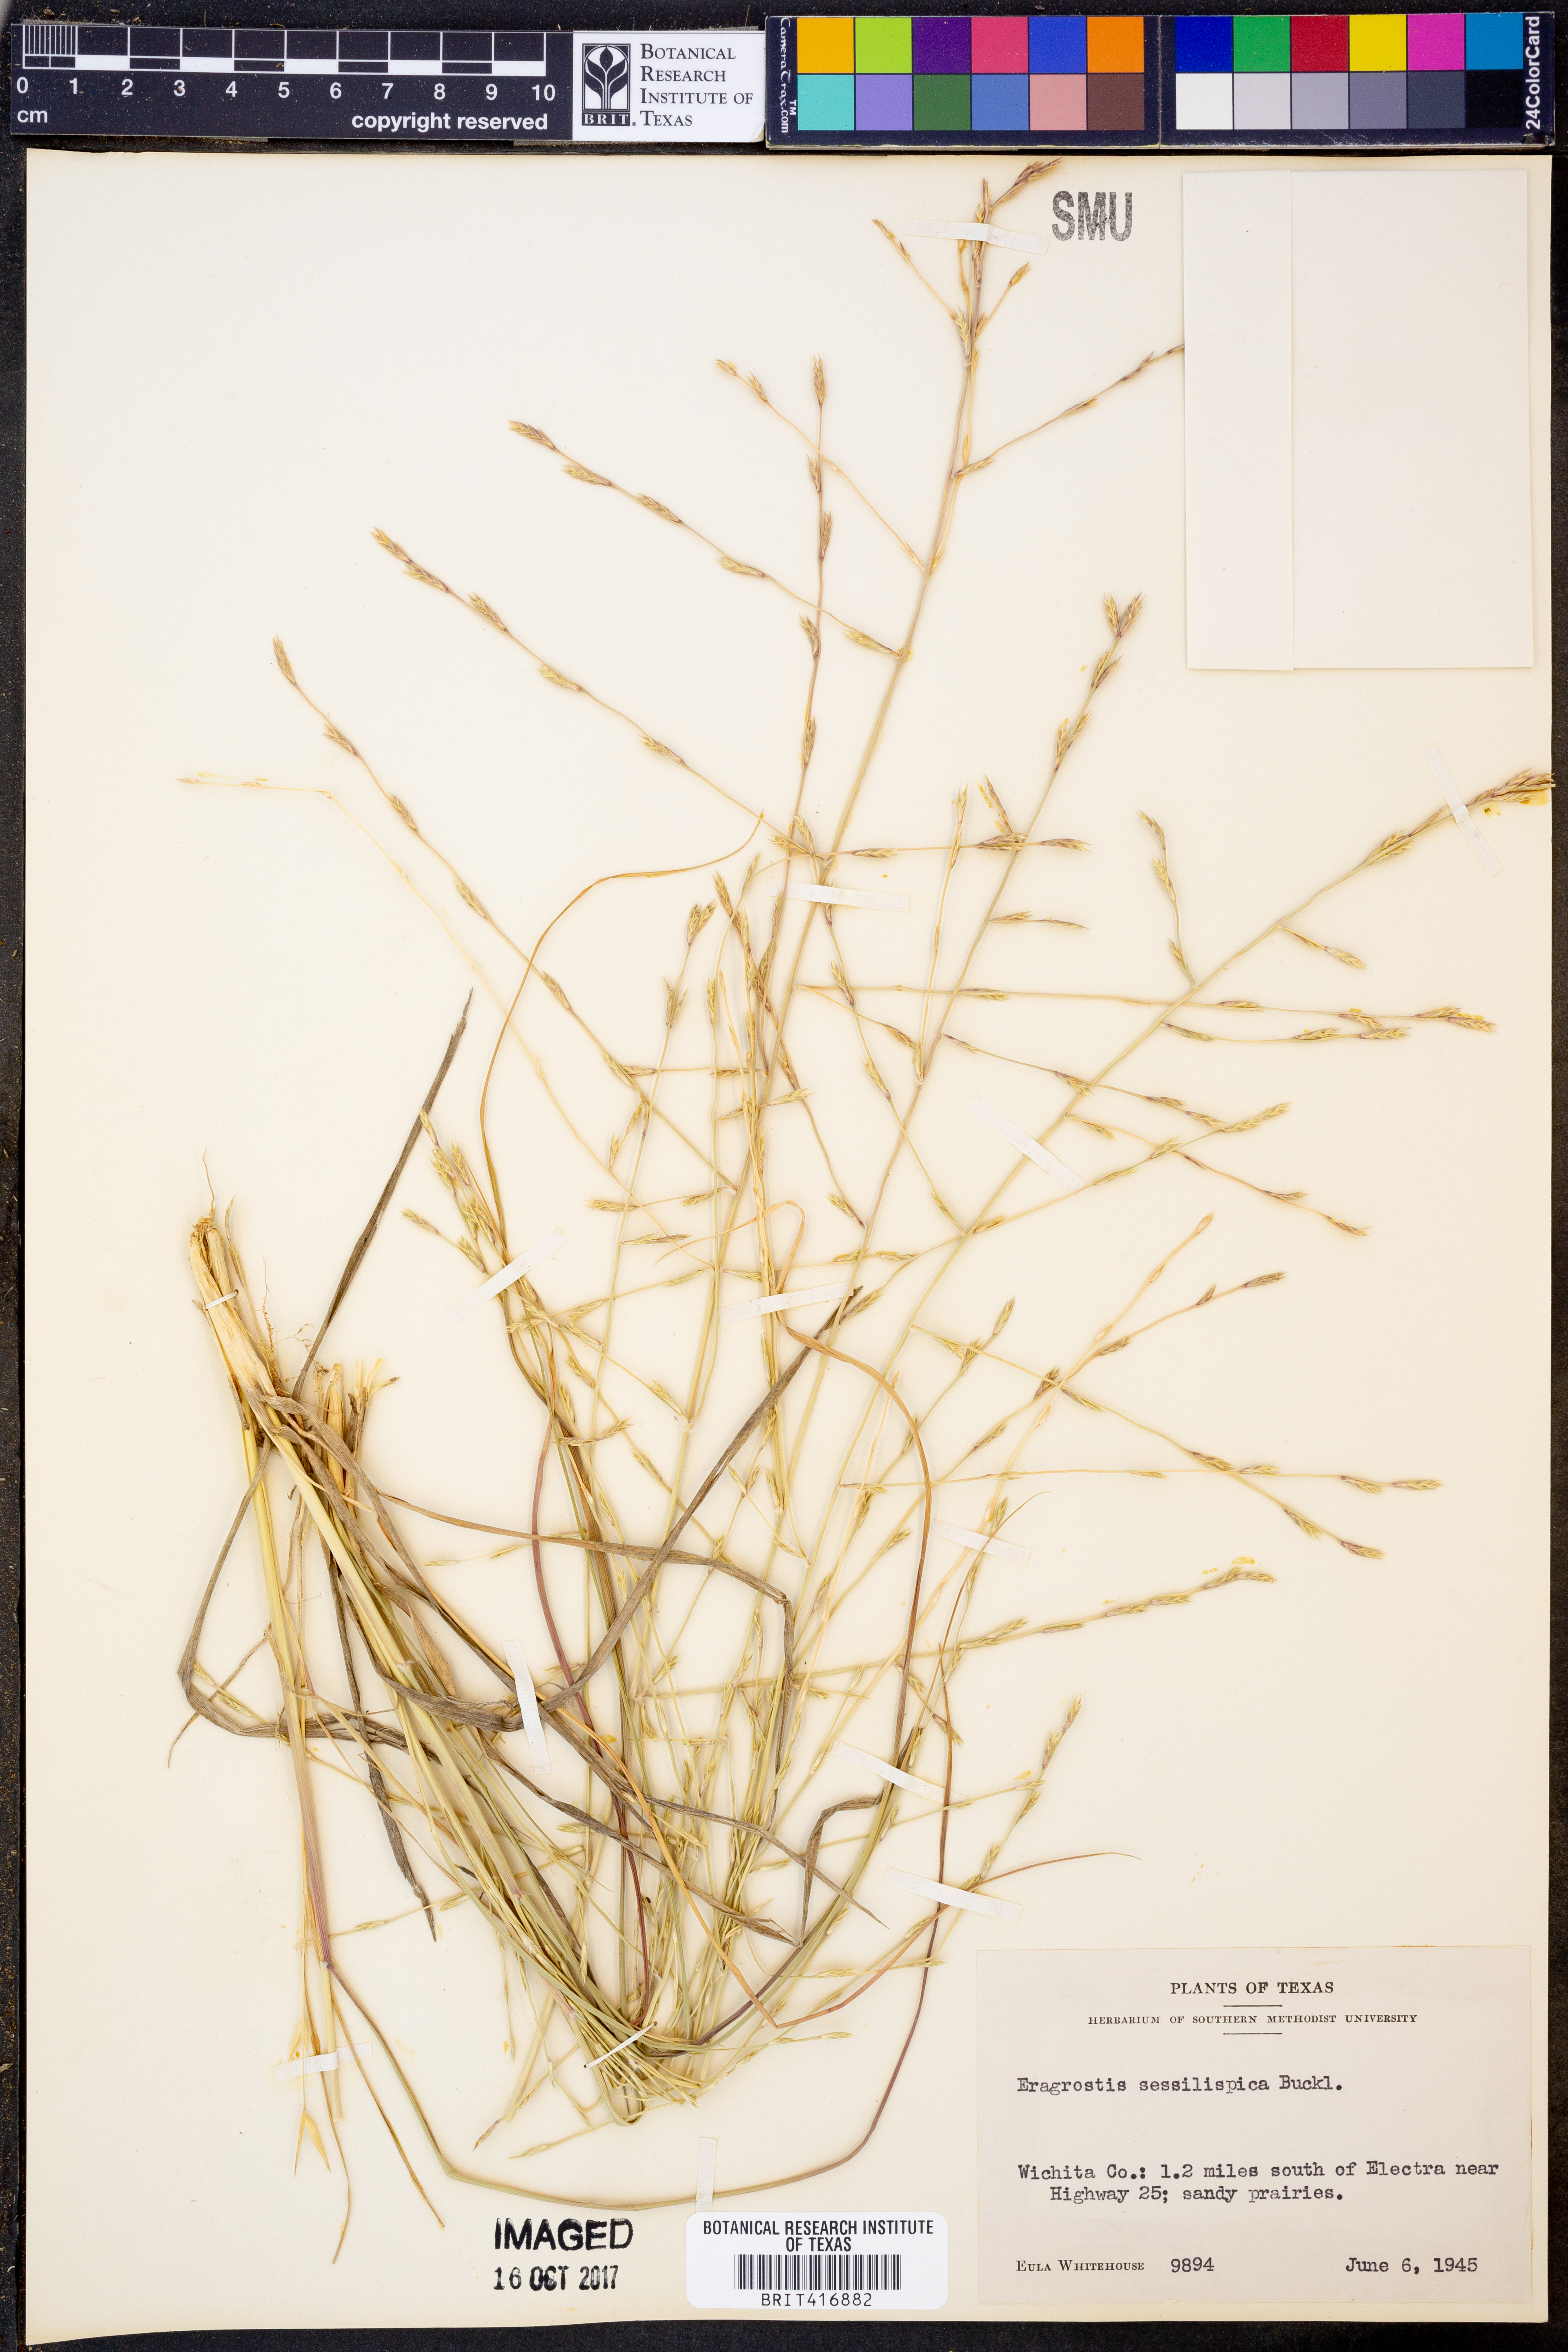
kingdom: Plantae
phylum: Tracheophyta
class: Liliopsida
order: Poales
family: Poaceae
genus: Eragrostis
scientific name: Eragrostis sessilispica
